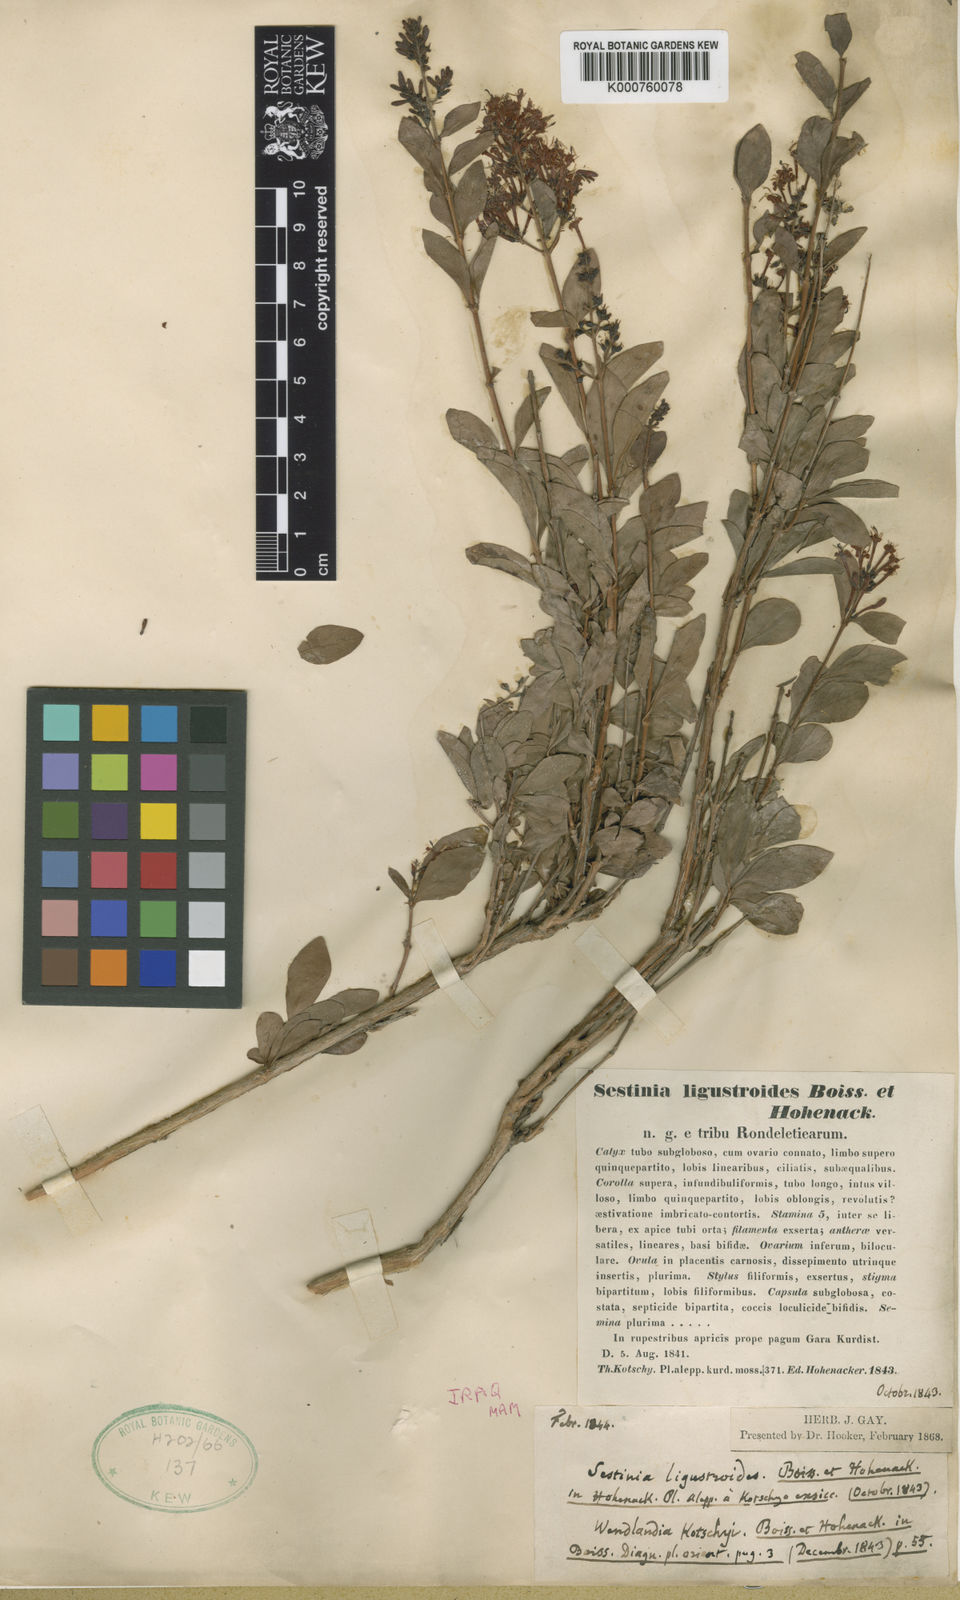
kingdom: Plantae
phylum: Tracheophyta
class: Magnoliopsida
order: Gentianales
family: Rubiaceae
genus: Wendlandia
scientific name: Wendlandia ligustroides
